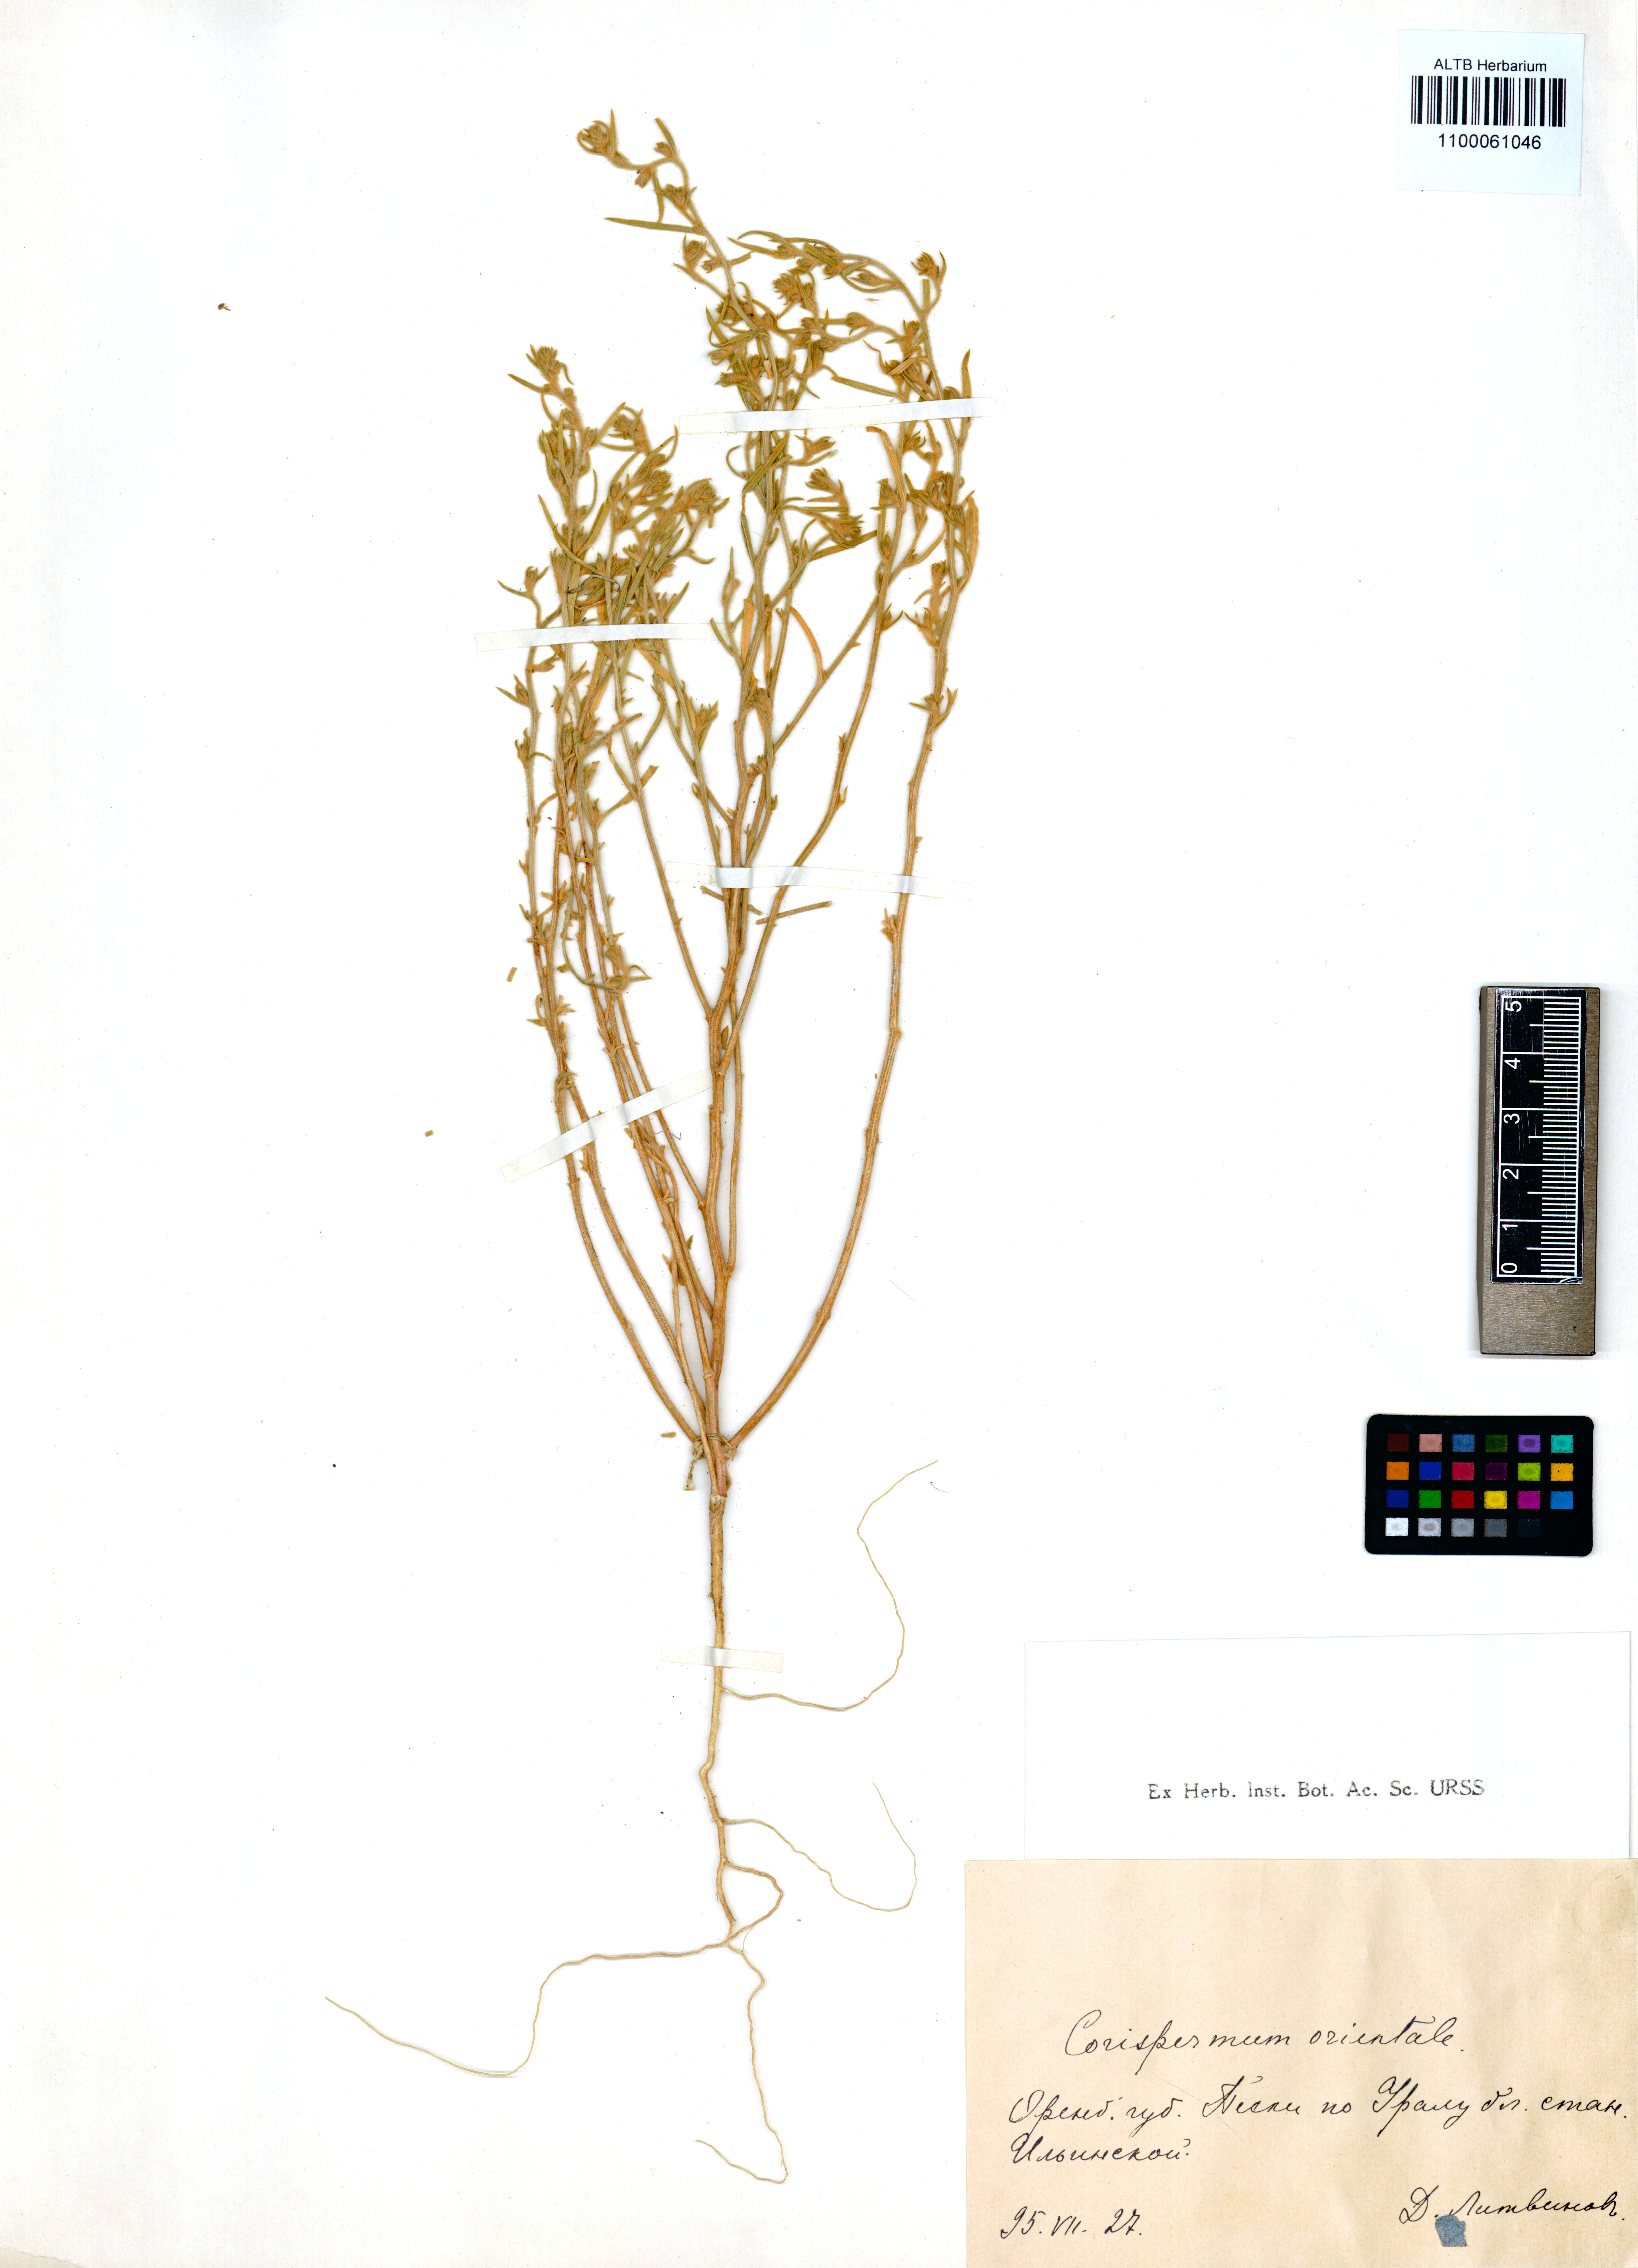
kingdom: Plantae
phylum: Tracheophyta
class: Magnoliopsida
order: Caryophyllales
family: Amaranthaceae
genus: Corispermum
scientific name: Corispermum aralocaspicum
